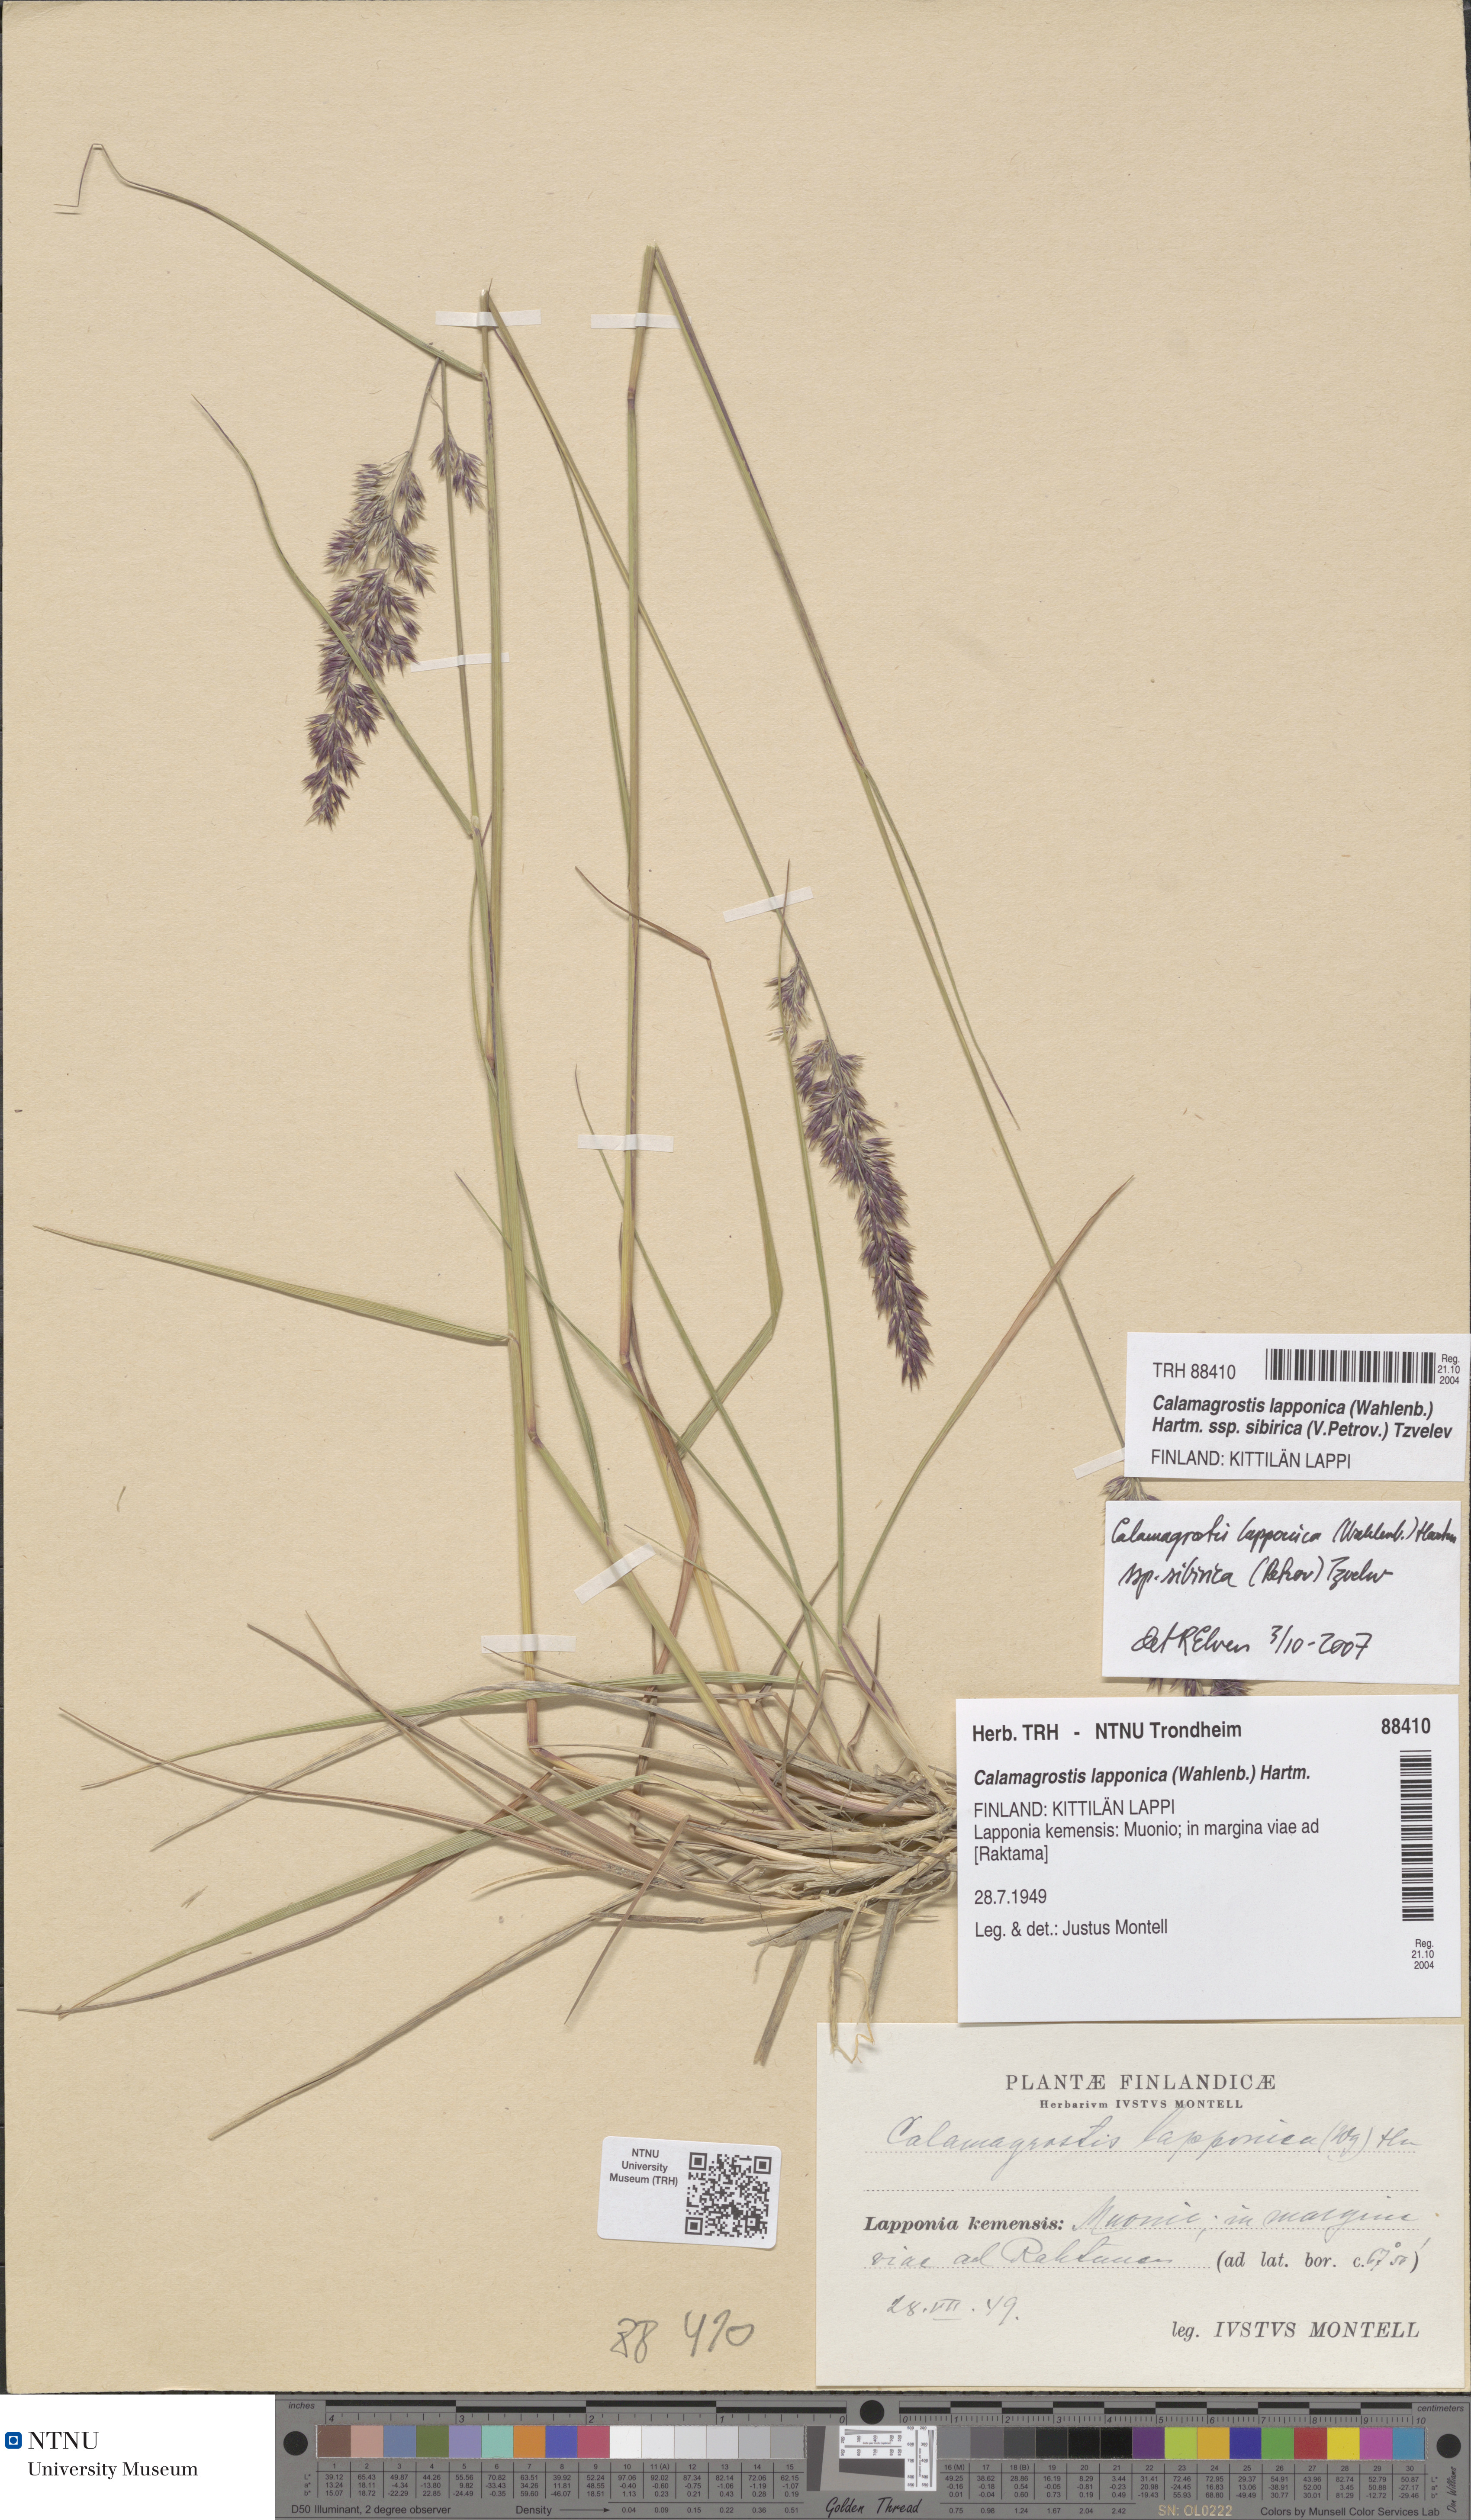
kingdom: Plantae
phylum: Tracheophyta
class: Liliopsida
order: Poales
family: Poaceae
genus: Calamagrostis
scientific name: Calamagrostis lapponica
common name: Lapland reedgrass
